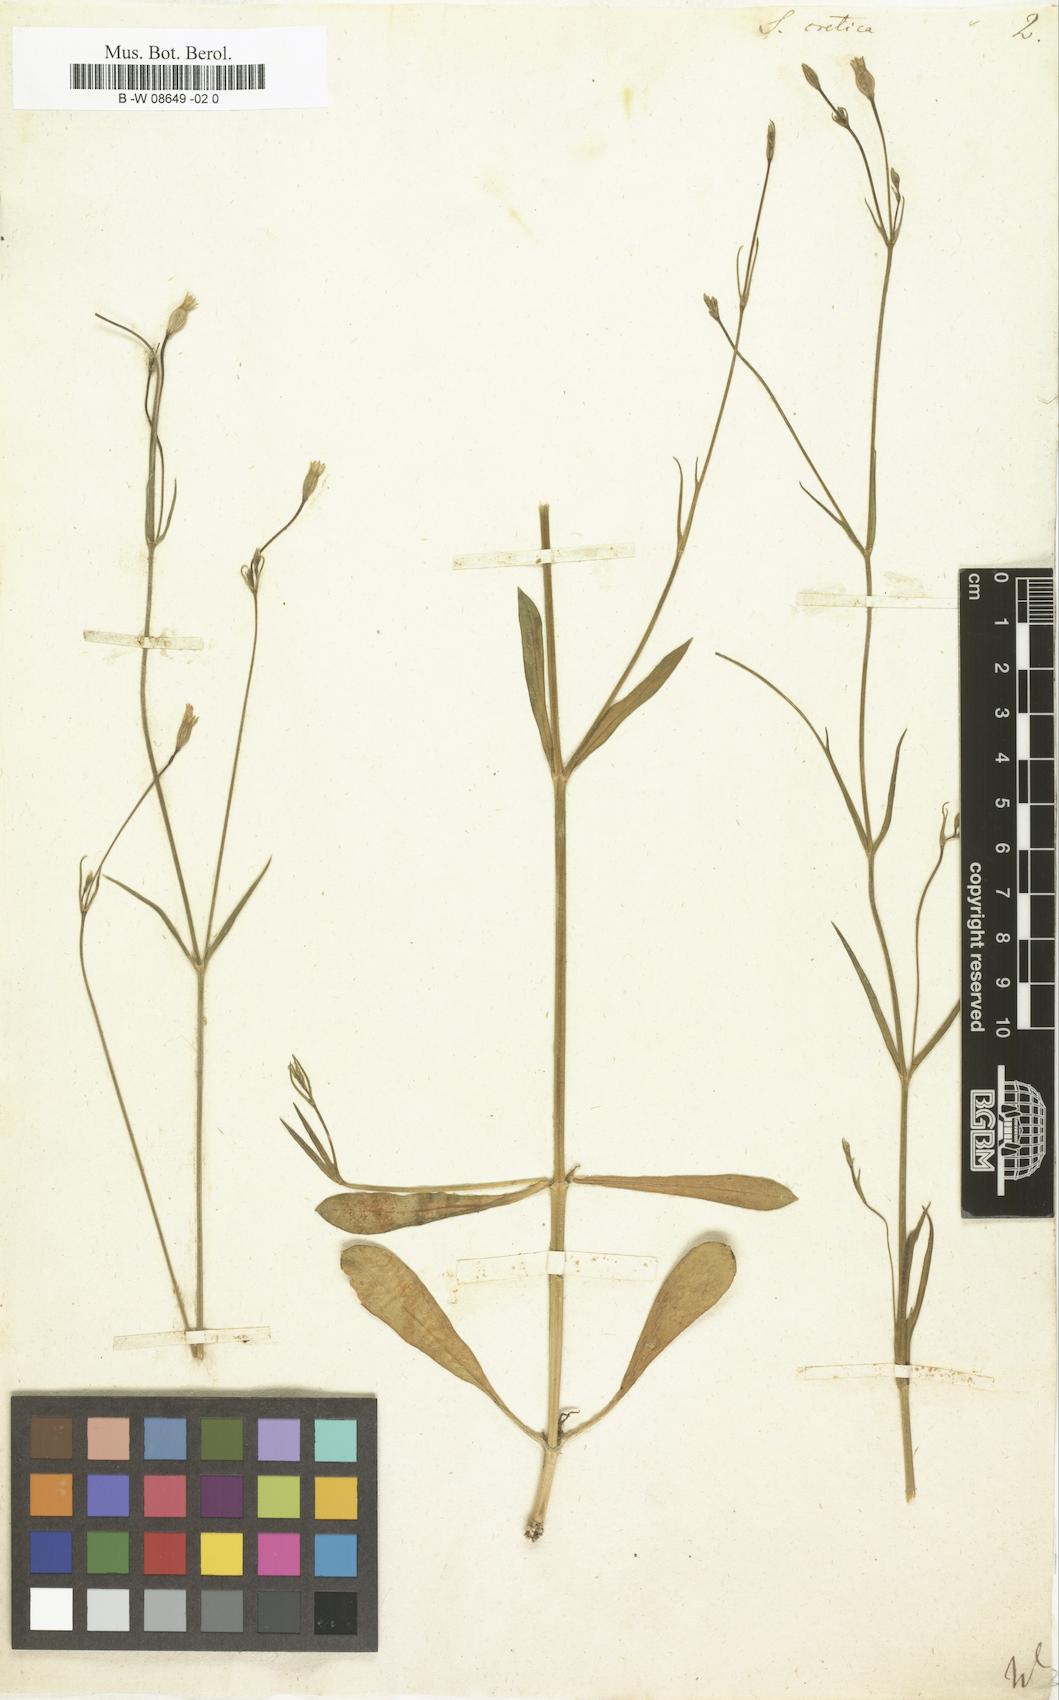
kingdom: Plantae
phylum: Tracheophyta
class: Magnoliopsida
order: Caryophyllales
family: Caryophyllaceae
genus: Silene
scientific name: Silene cretica
